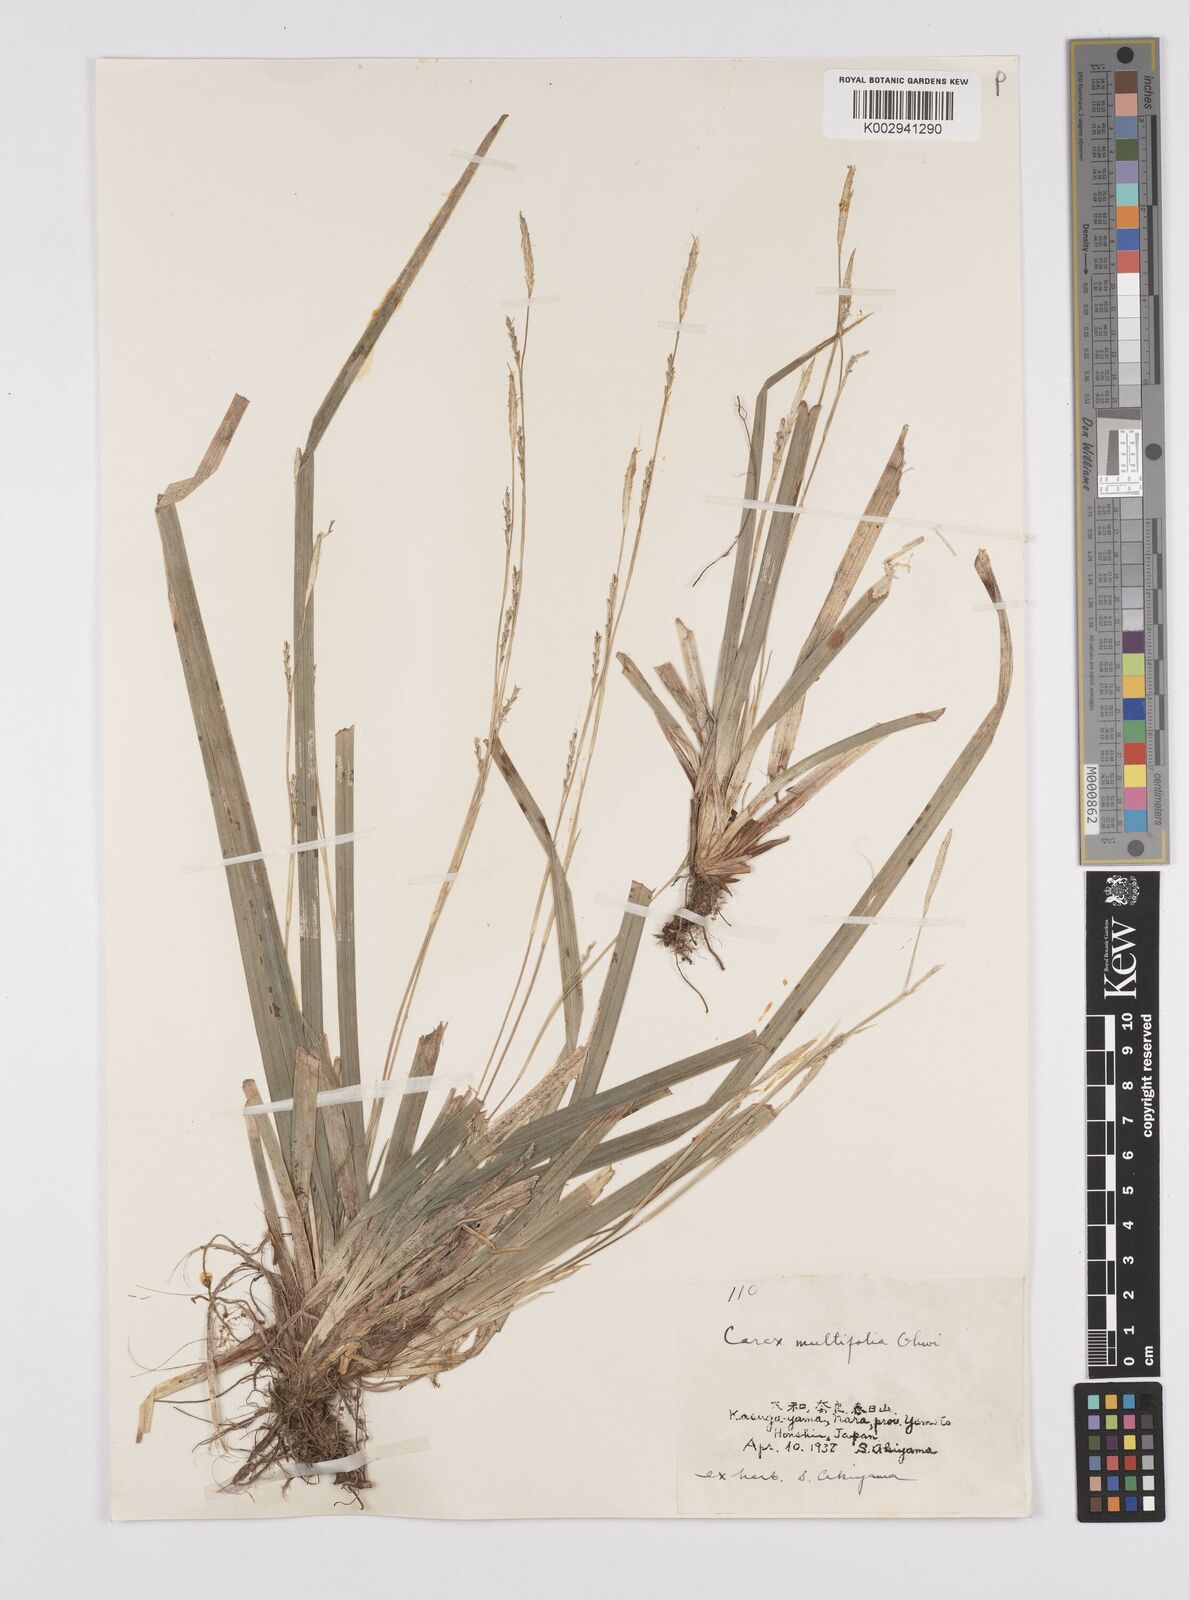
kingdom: Plantae
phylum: Tracheophyta
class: Liliopsida
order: Poales
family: Cyperaceae
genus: Carex
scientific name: Carex dolichostachya
